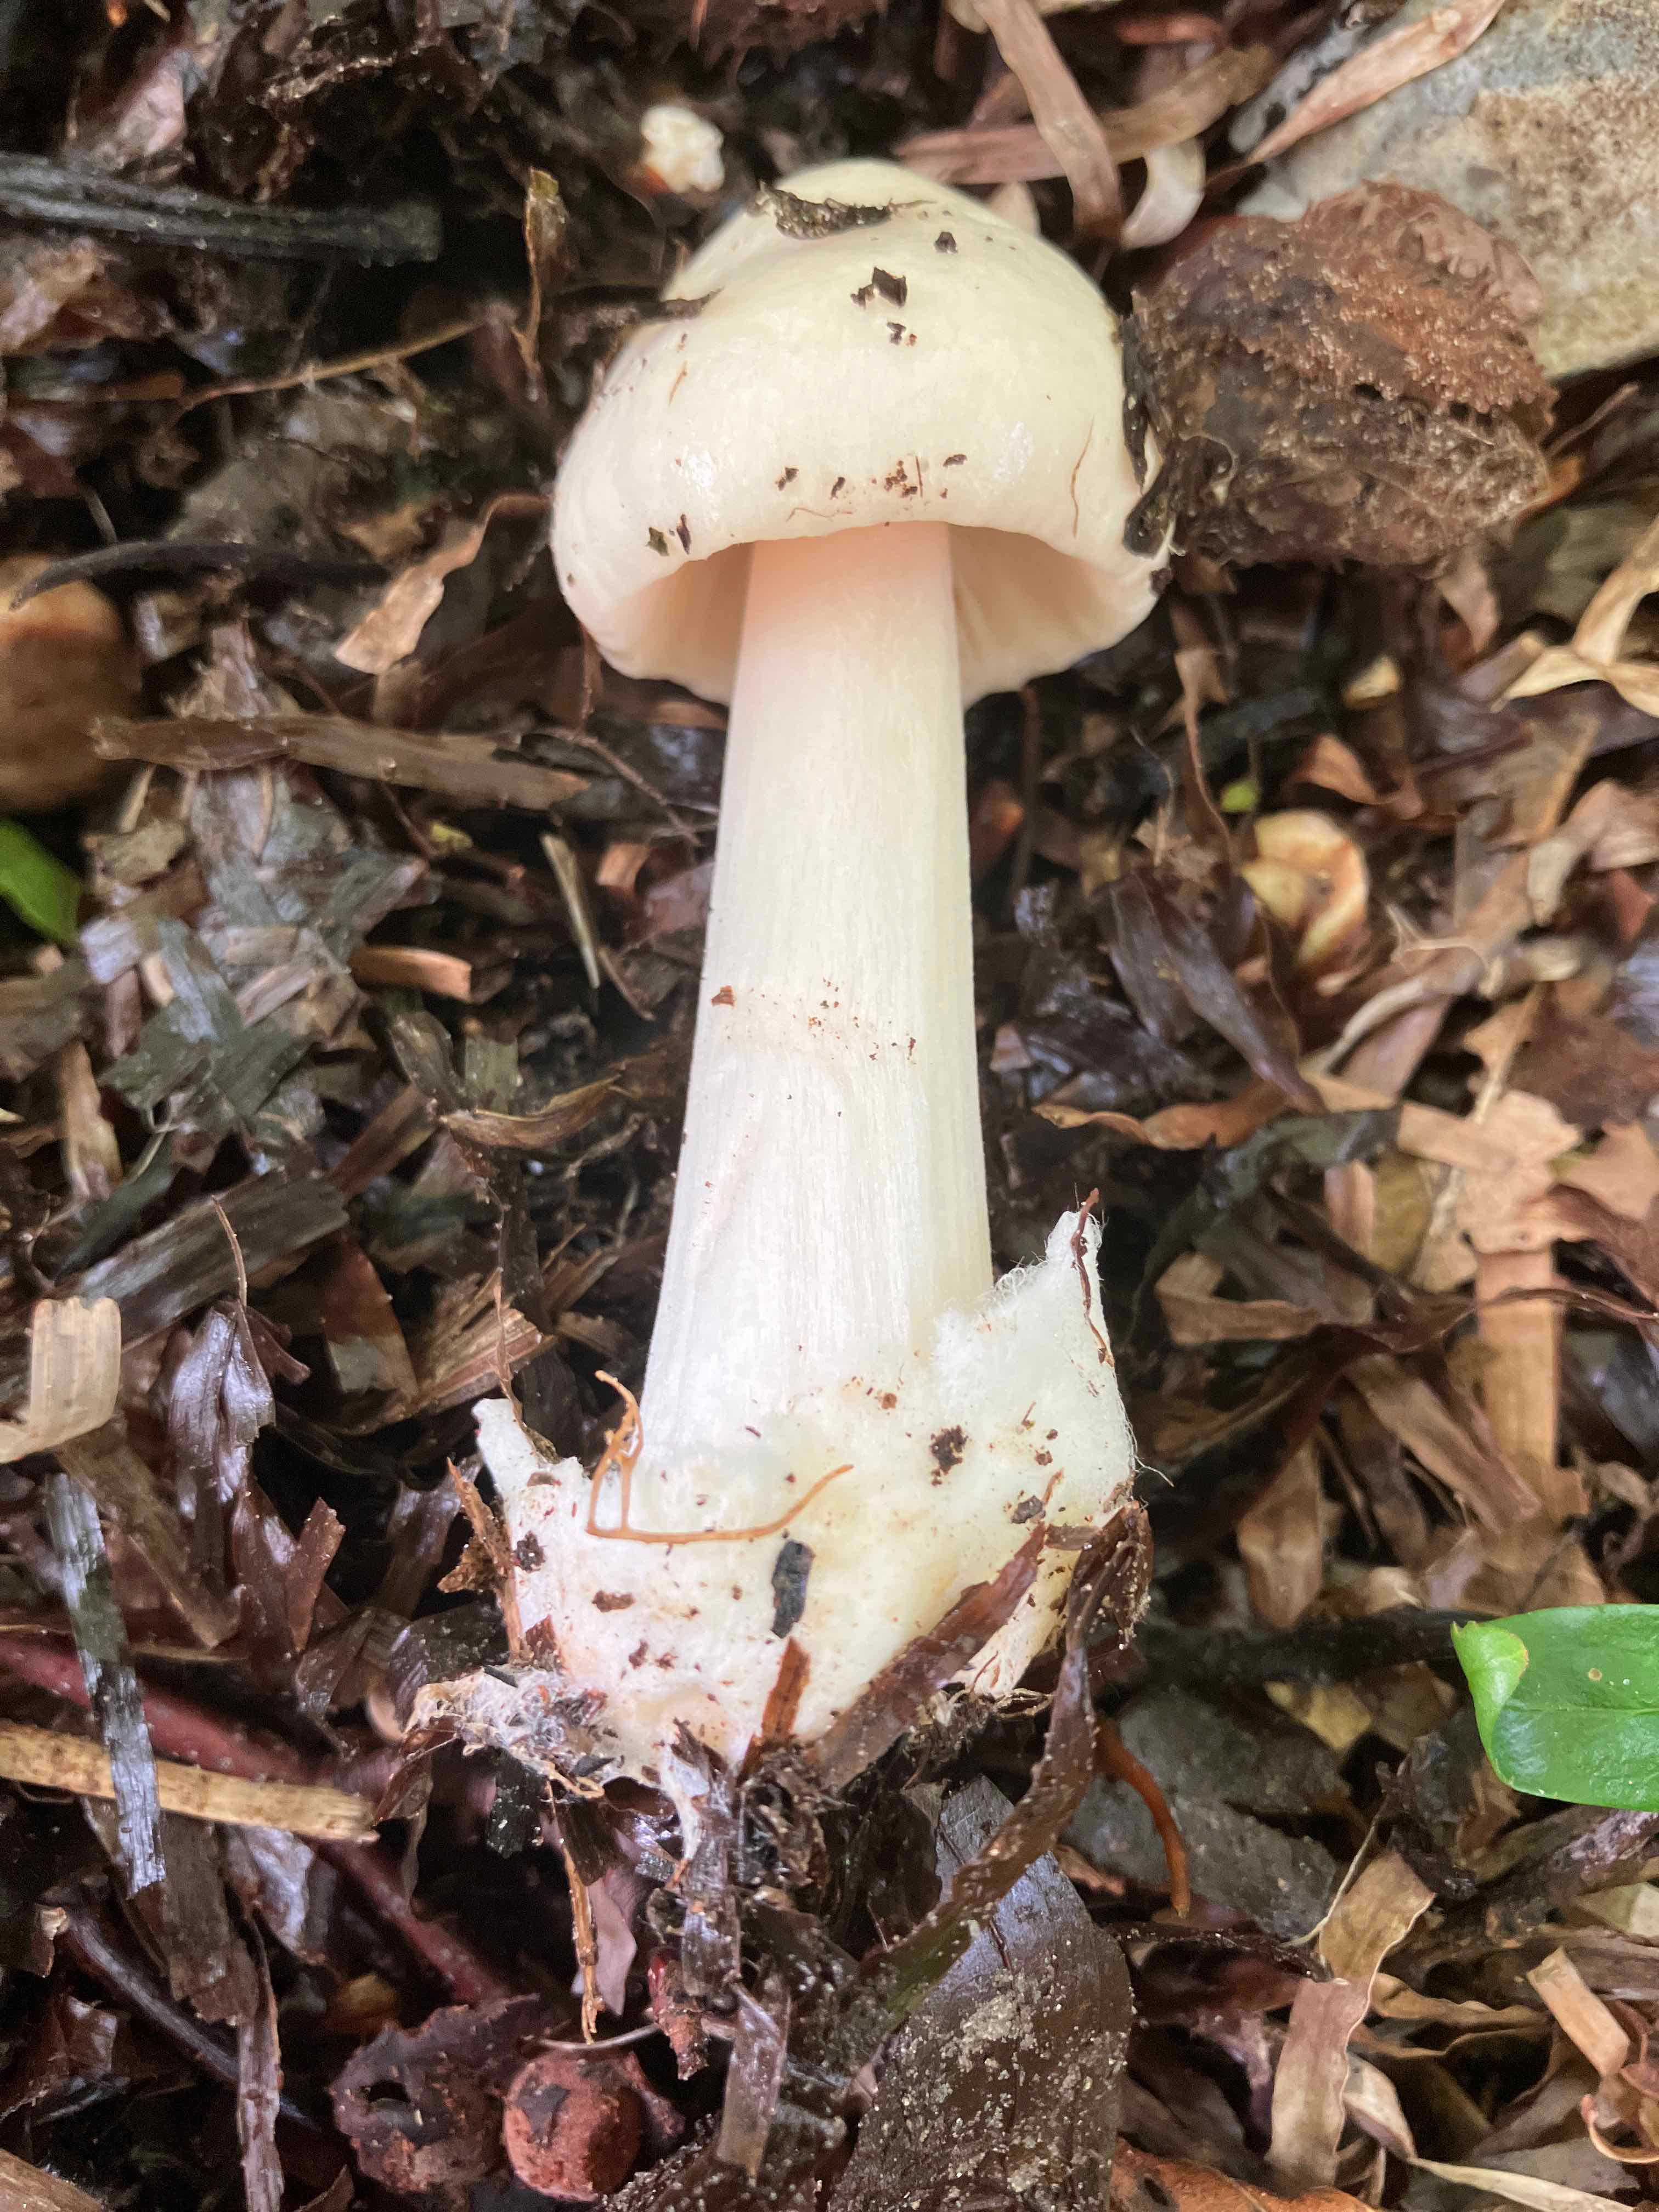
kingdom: Fungi
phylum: Basidiomycota
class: Agaricomycetes
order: Agaricales
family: Pluteaceae
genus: Volvopluteus
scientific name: Volvopluteus gloiocephalus
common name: høj posesvamp
